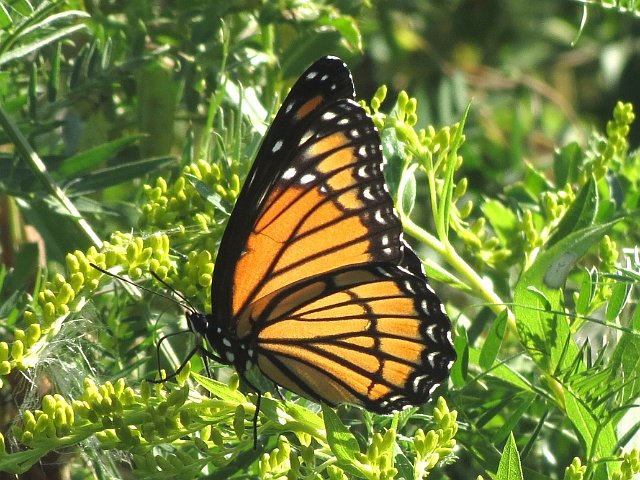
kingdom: Animalia
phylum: Arthropoda
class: Insecta
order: Lepidoptera
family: Nymphalidae
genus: Limenitis
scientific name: Limenitis archippus
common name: Viceroy
